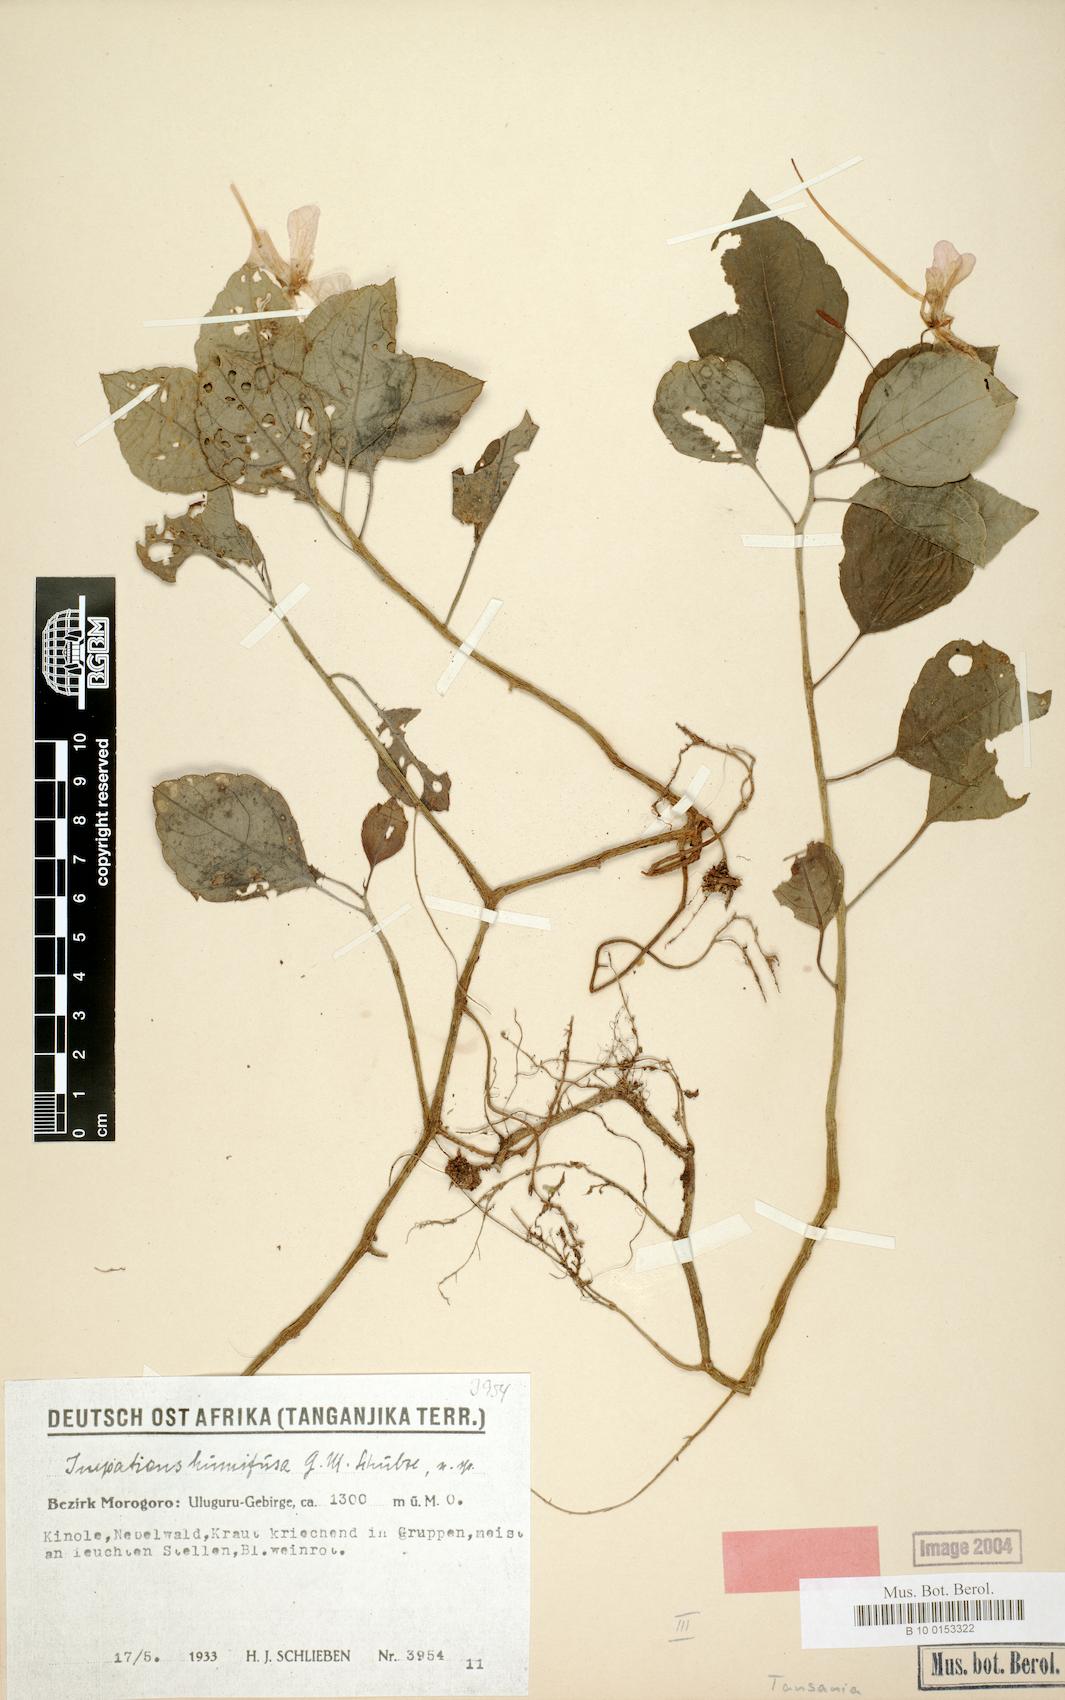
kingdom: Plantae
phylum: Tracheophyta
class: Magnoliopsida
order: Ericales
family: Balsaminaceae
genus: Impatiens
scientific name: Impatiens humifusa
